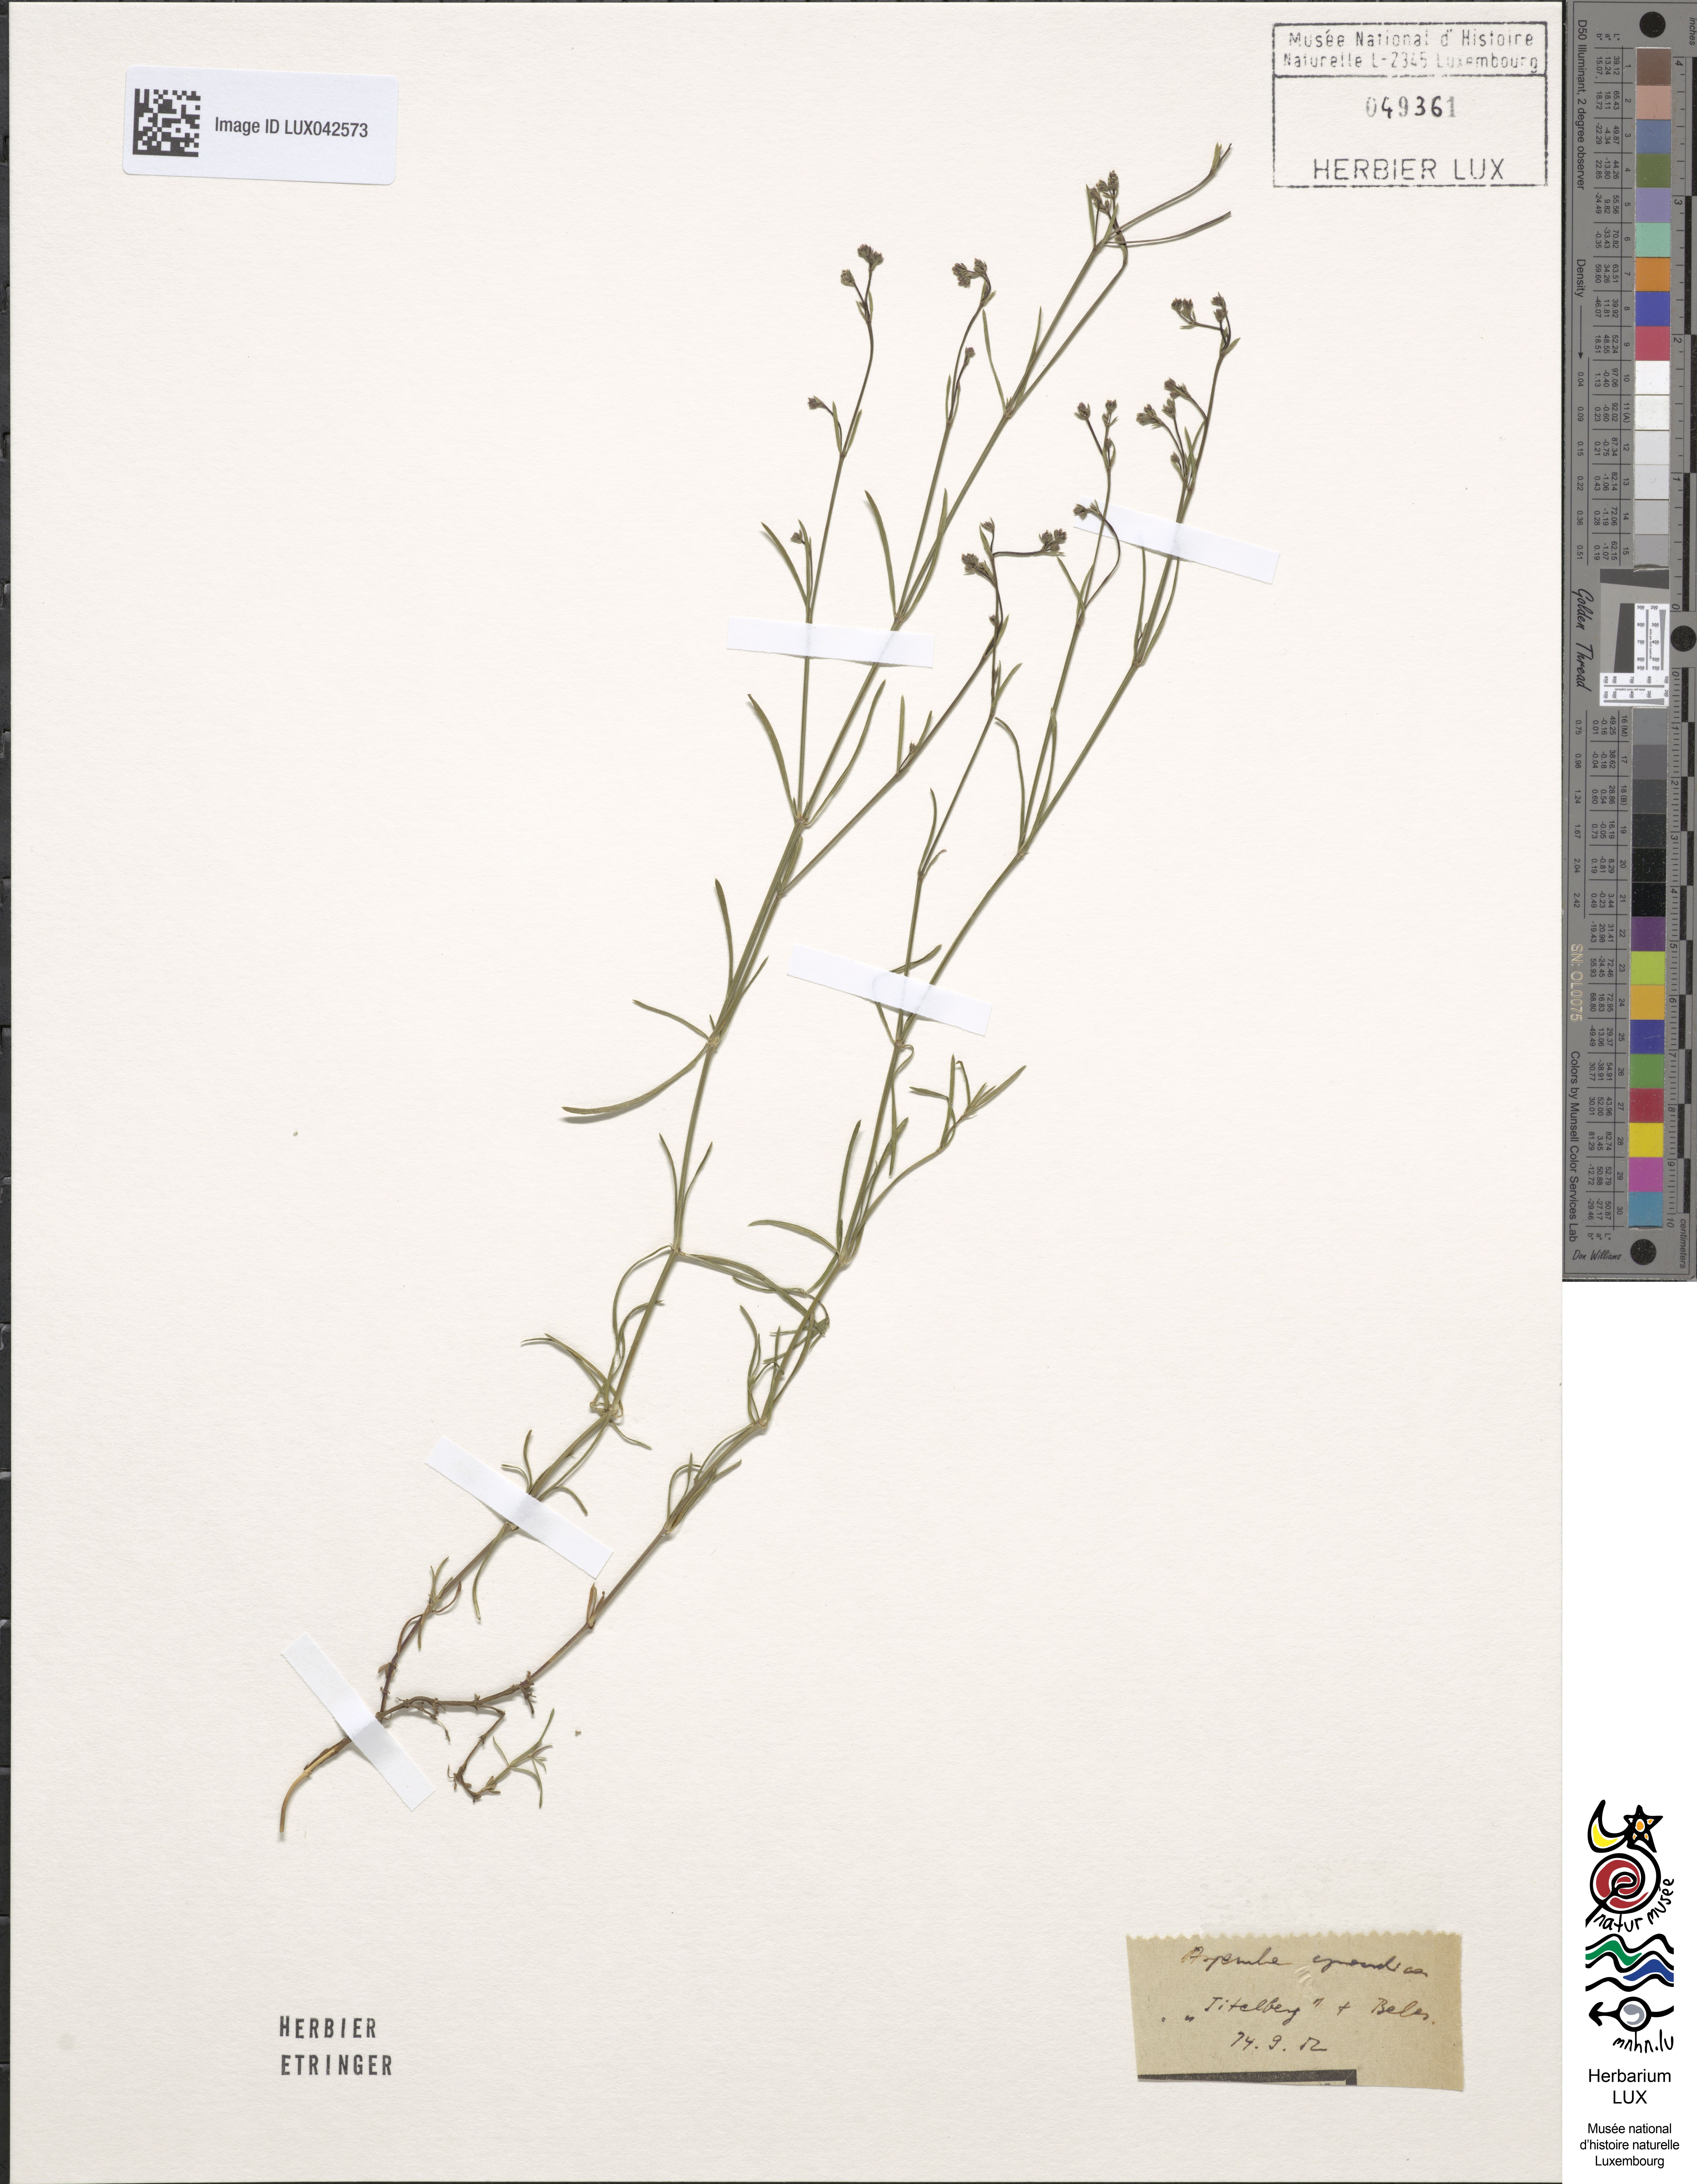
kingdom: Plantae
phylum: Tracheophyta
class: Magnoliopsida
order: Gentianales
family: Rubiaceae
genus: Cynanchica
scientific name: Cynanchica pyrenaica
